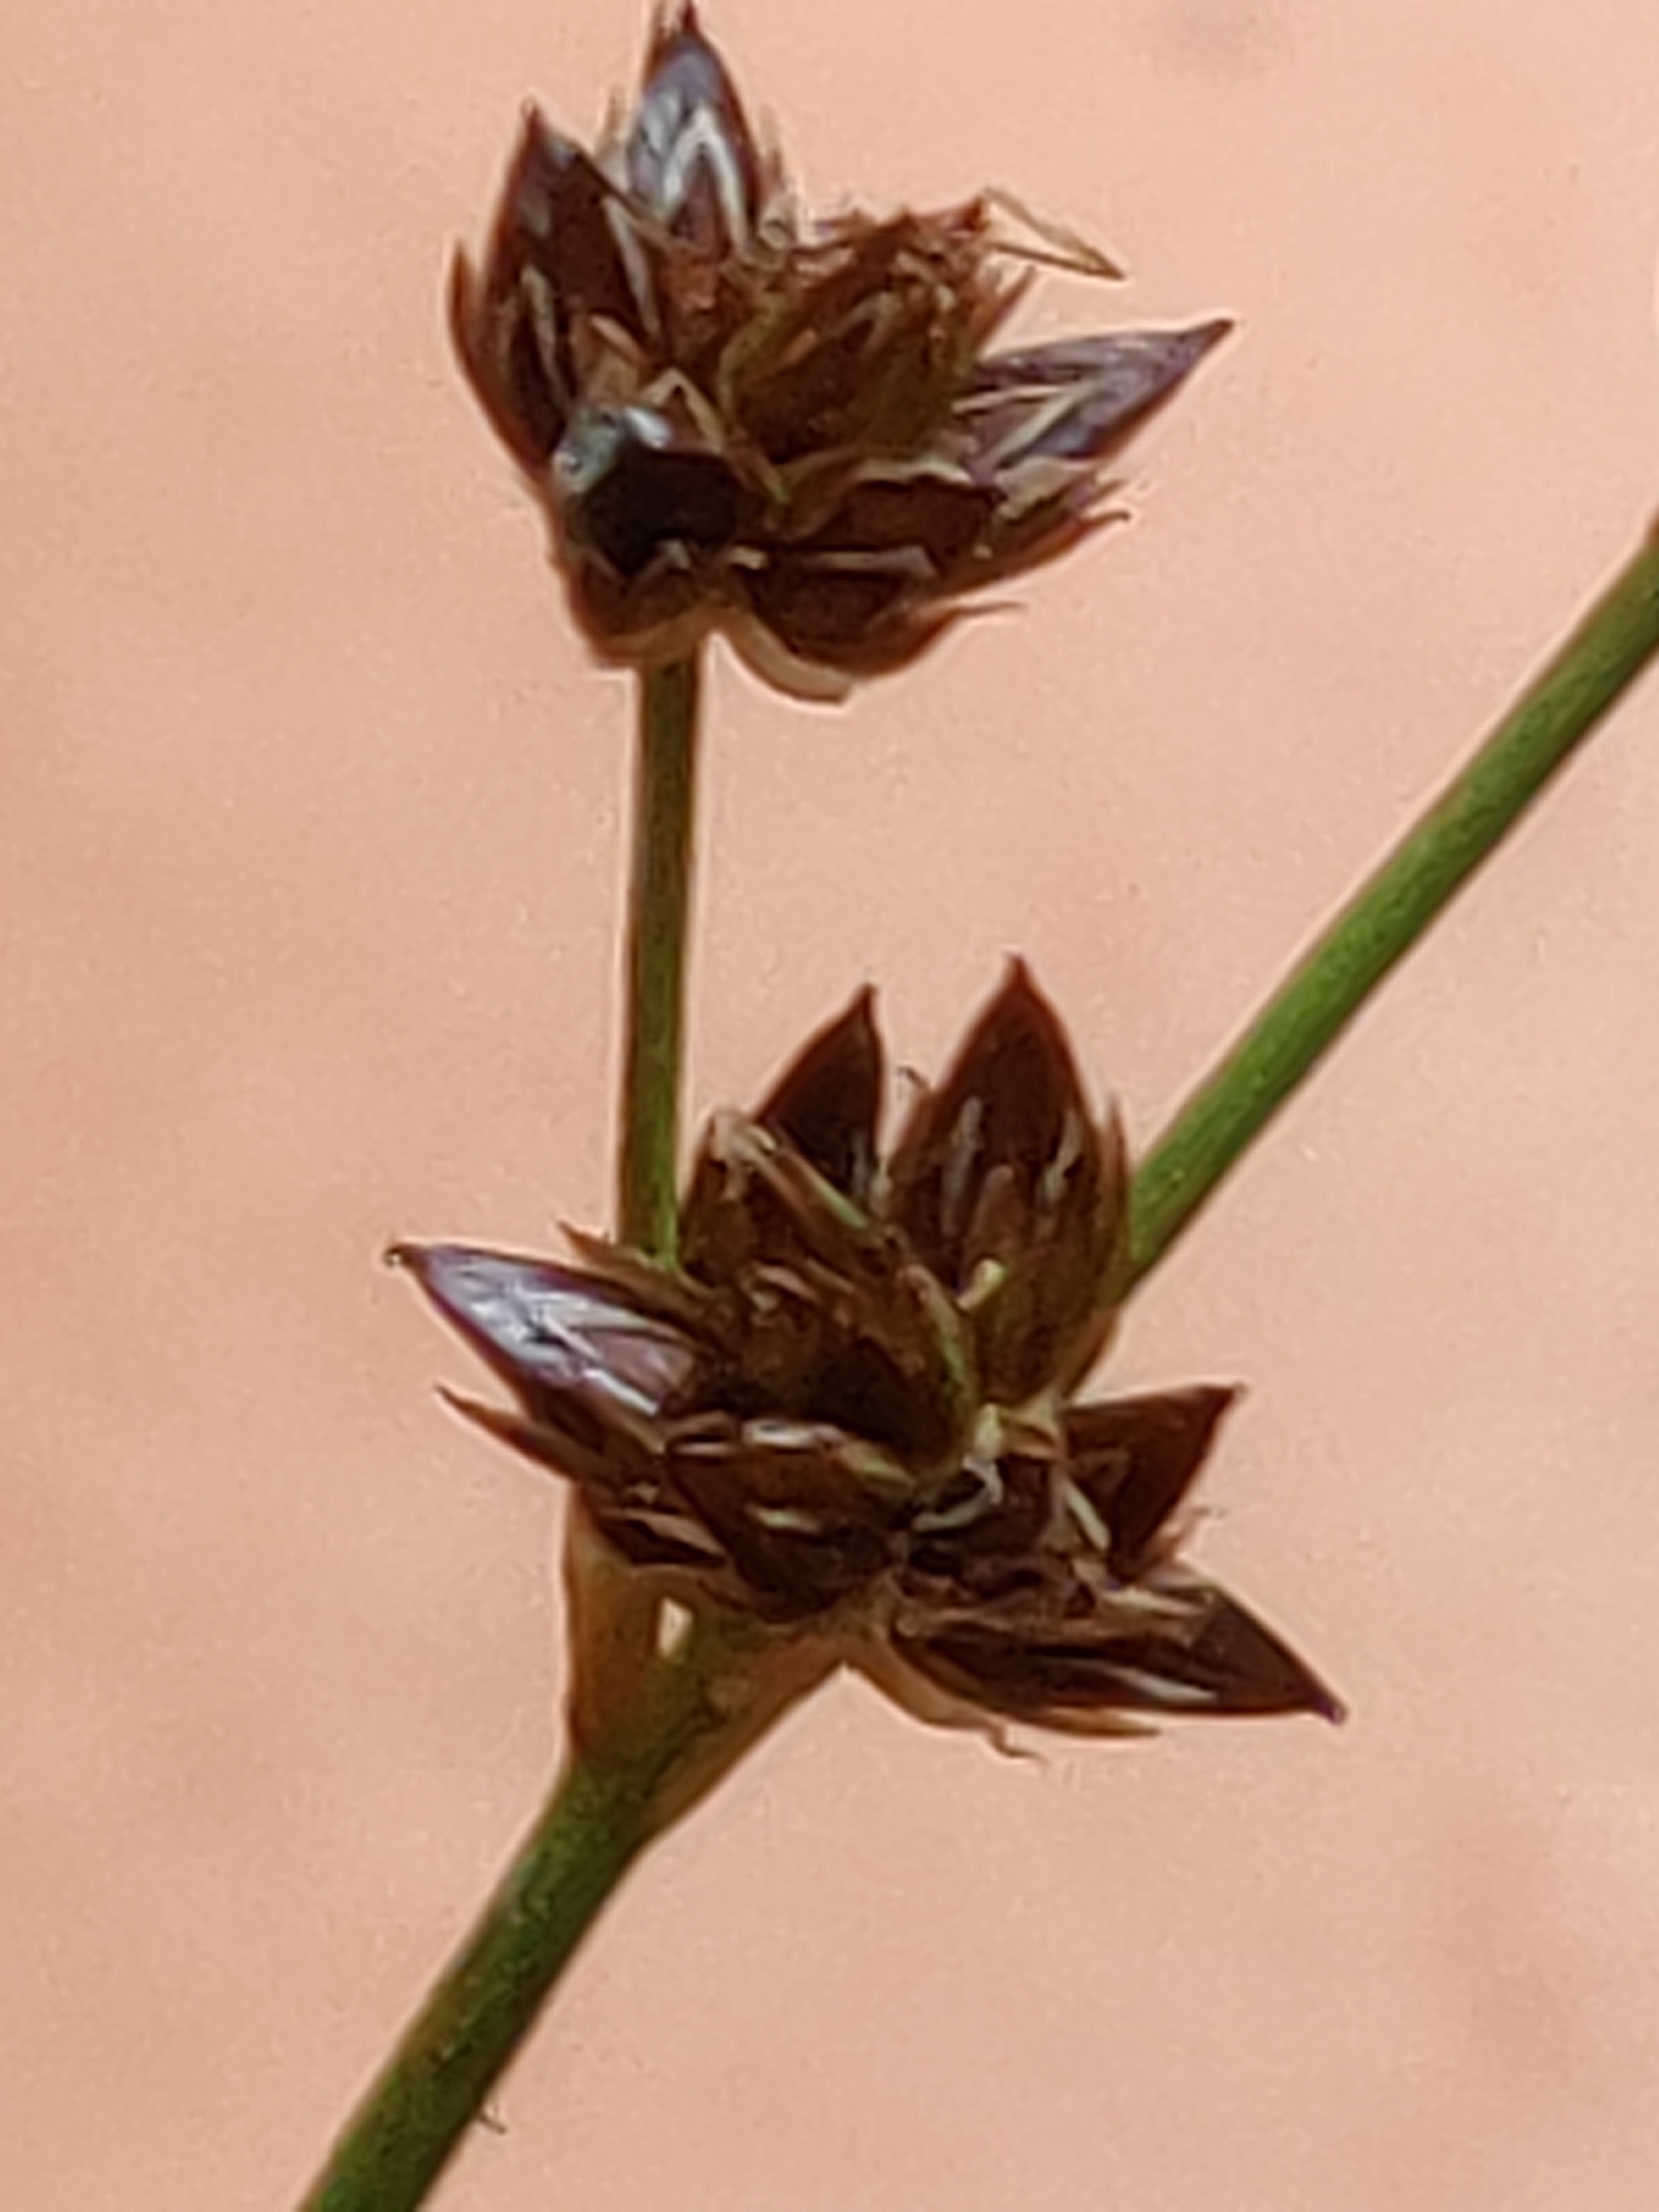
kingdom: Plantae
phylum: Tracheophyta
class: Liliopsida
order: Poales
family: Juncaceae
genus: Juncus
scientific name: Juncus articulatus
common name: Glanskapslet siv
